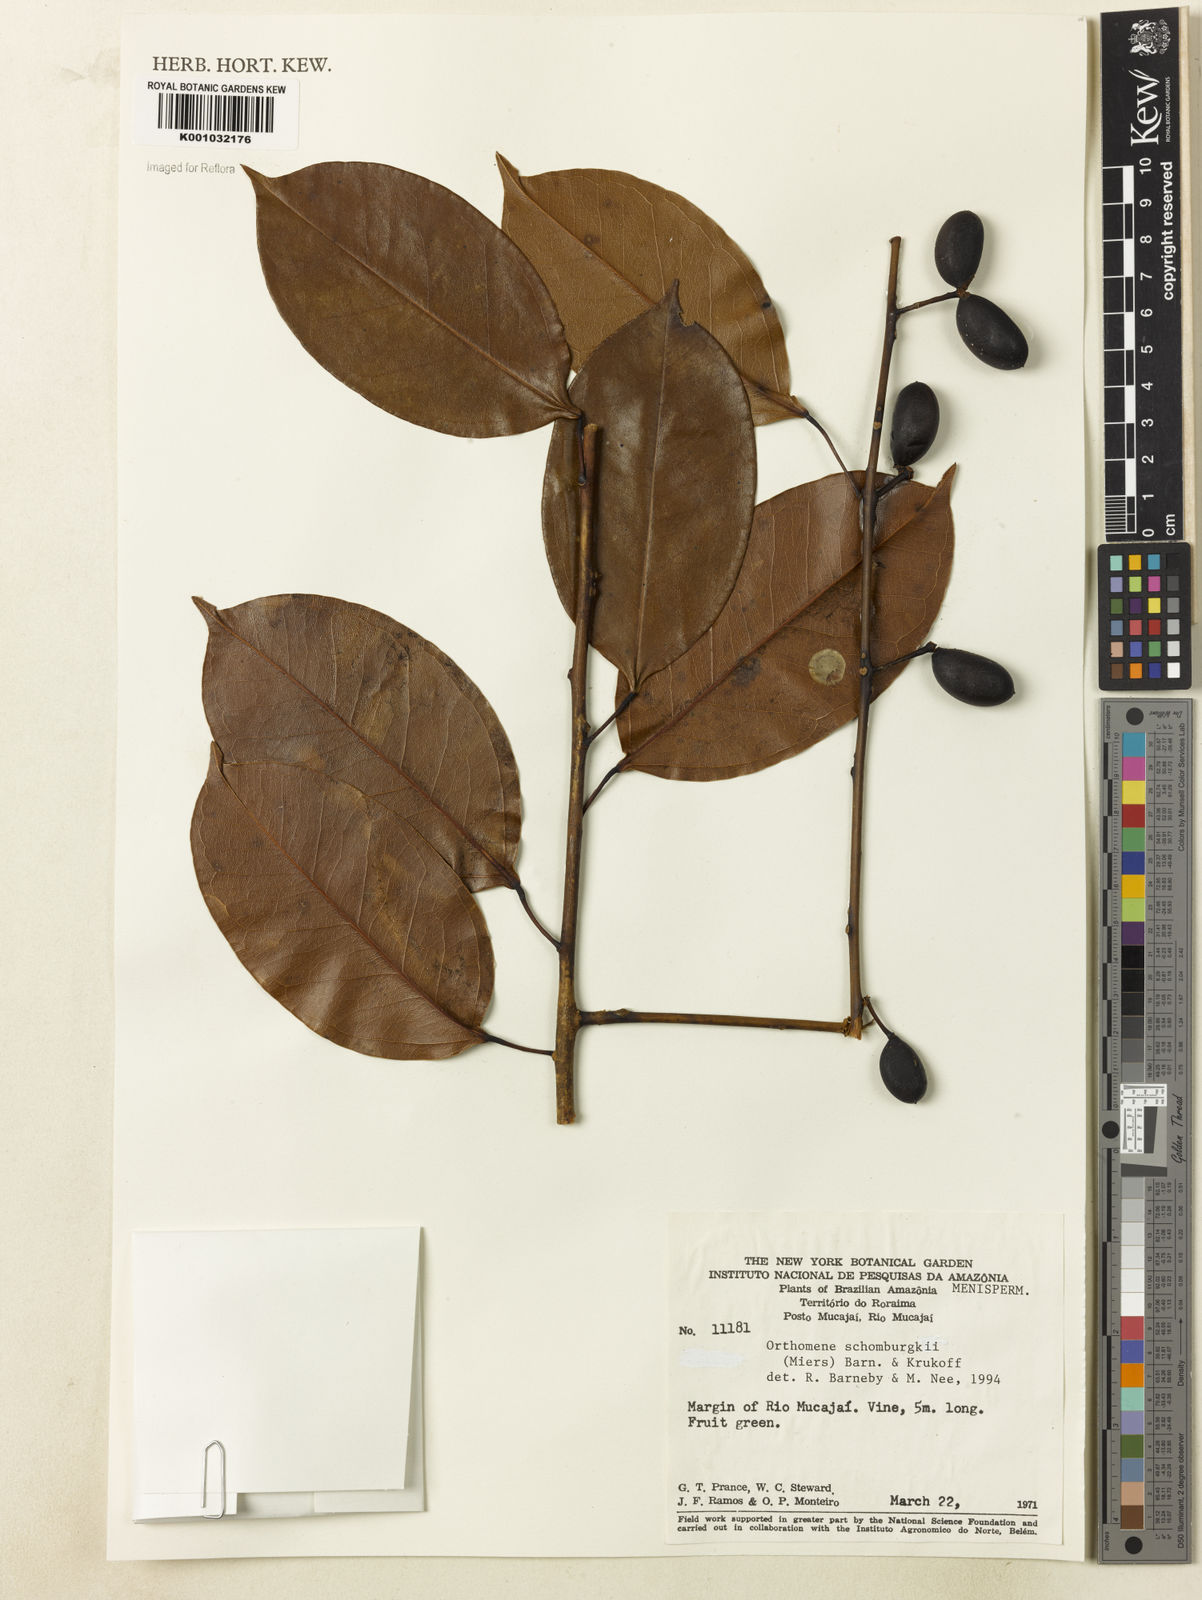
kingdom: Plantae
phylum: Tracheophyta
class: Magnoliopsida
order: Ranunculales
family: Menispermaceae
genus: Orthomene
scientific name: Orthomene schomburgkii
